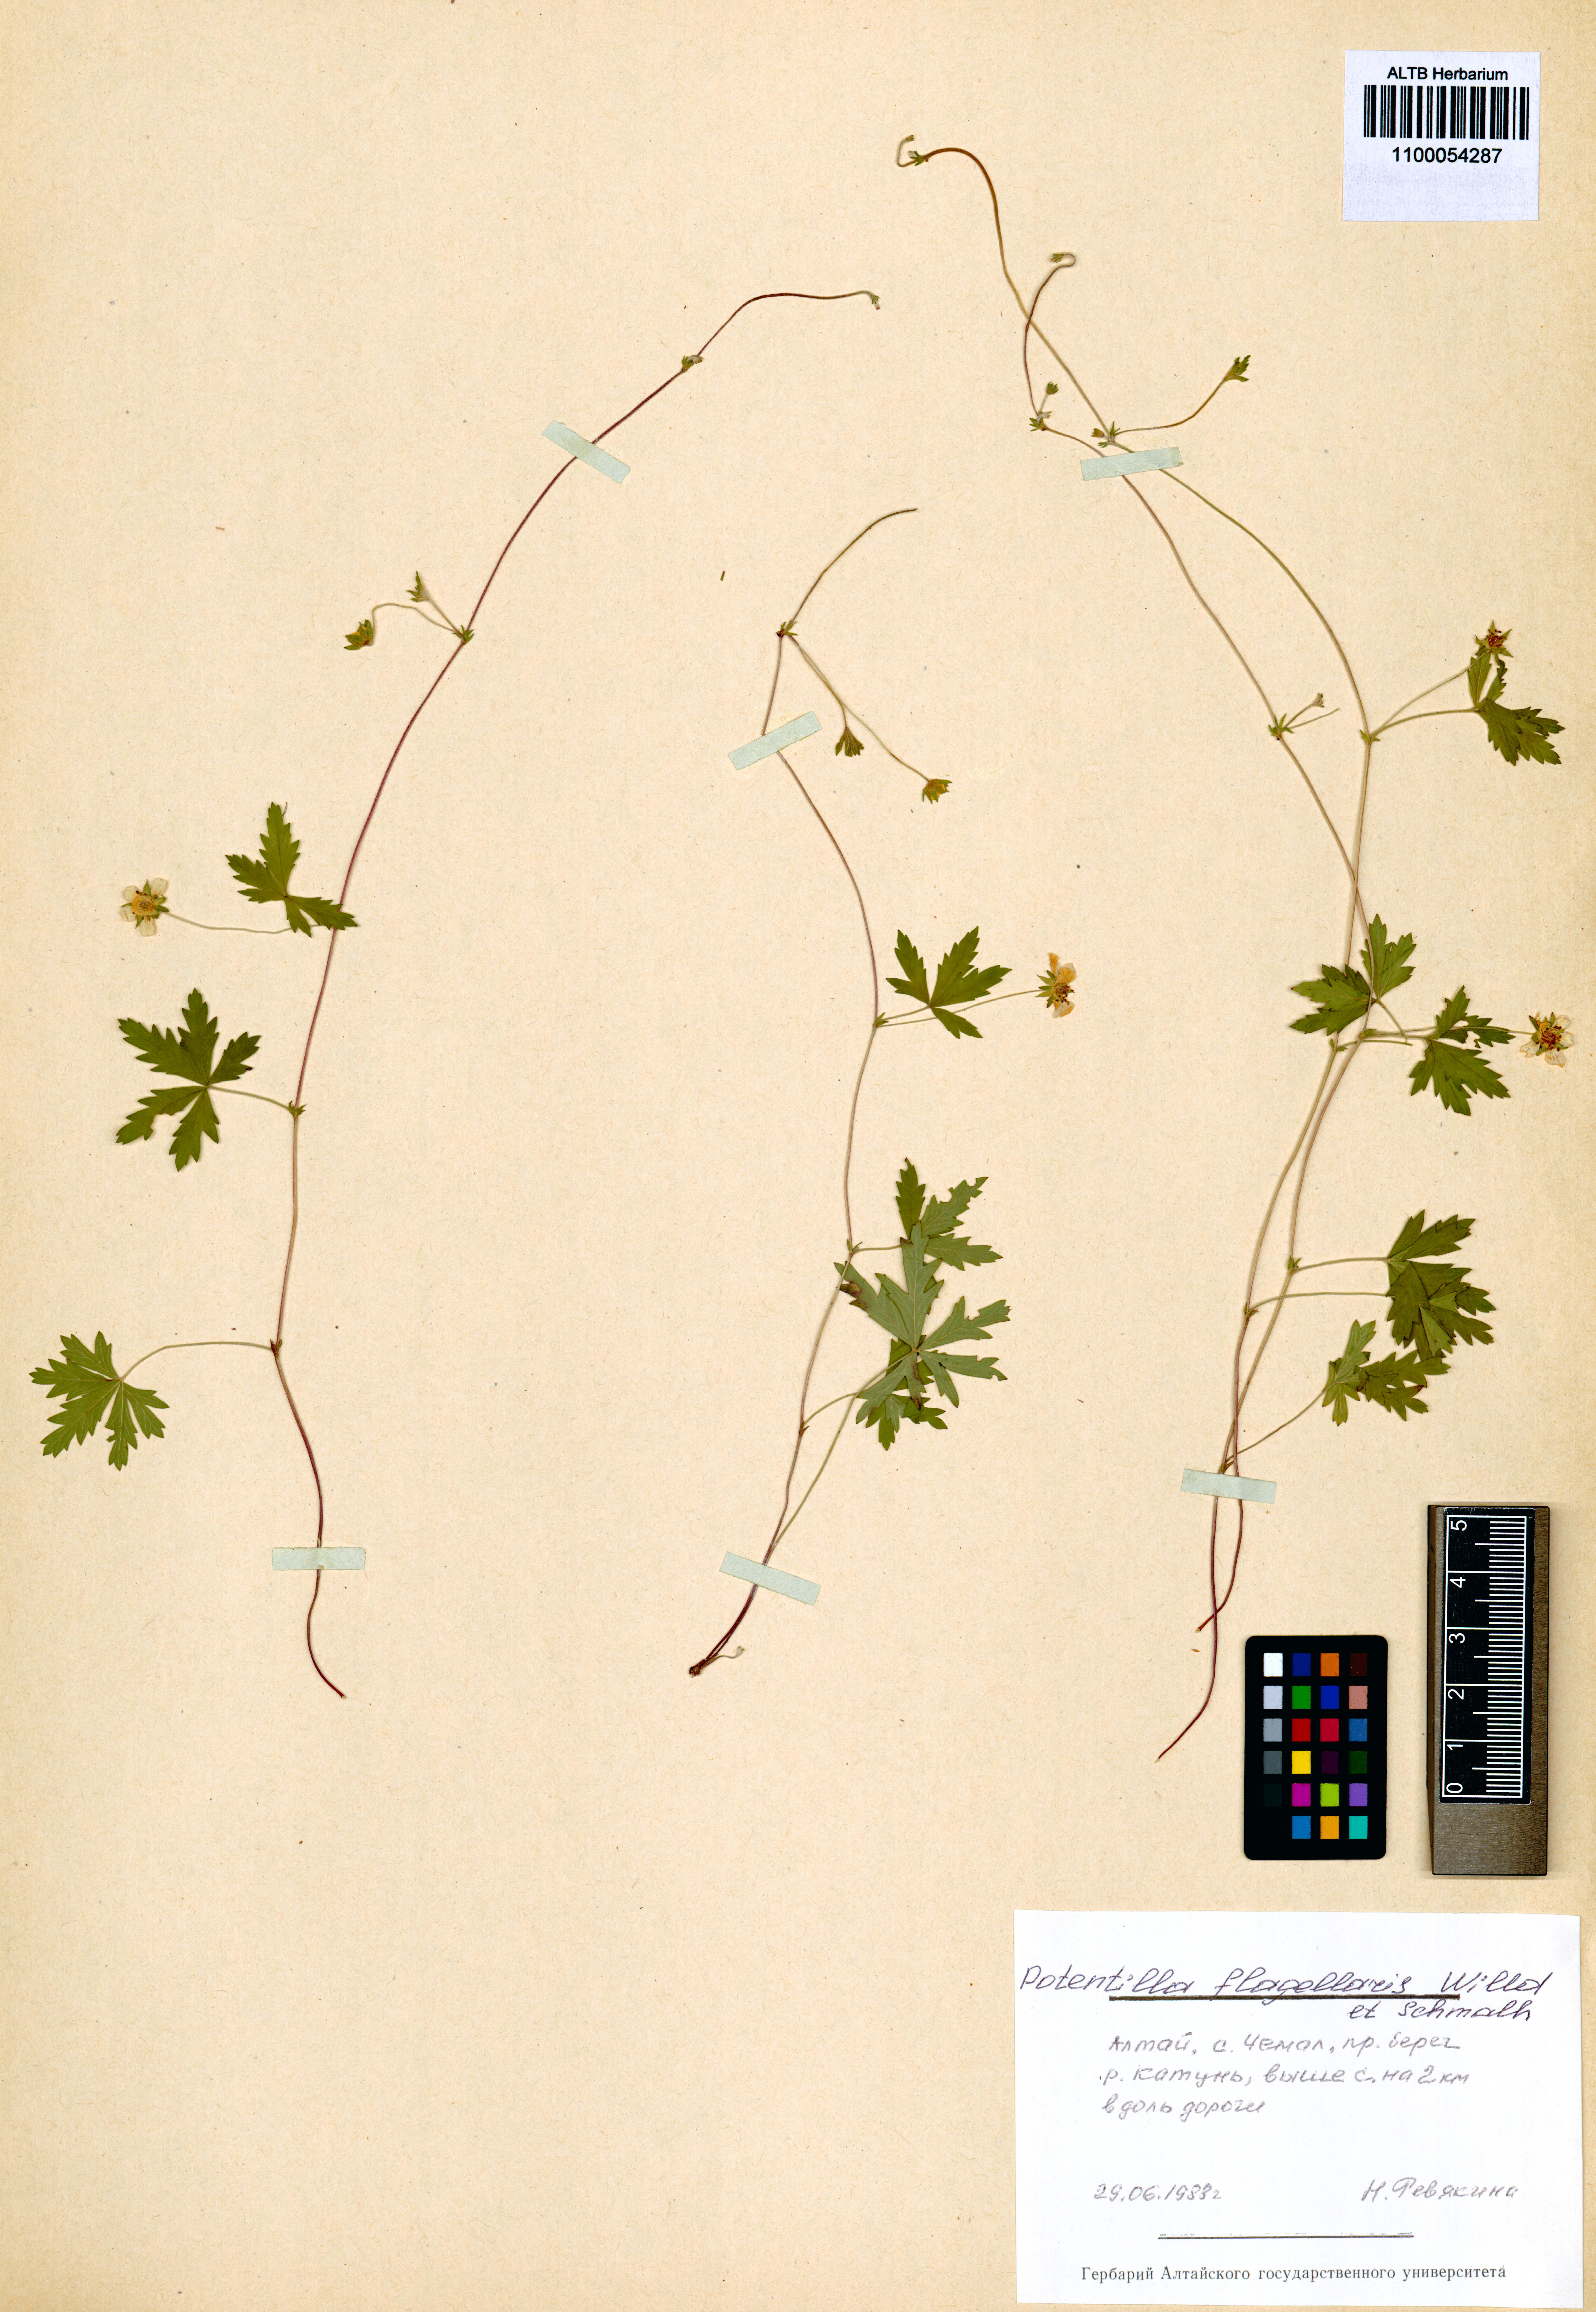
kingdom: Plantae
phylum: Tracheophyta
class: Magnoliopsida
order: Rosales
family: Rosaceae
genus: Potentilla
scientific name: Potentilla flagellaris
